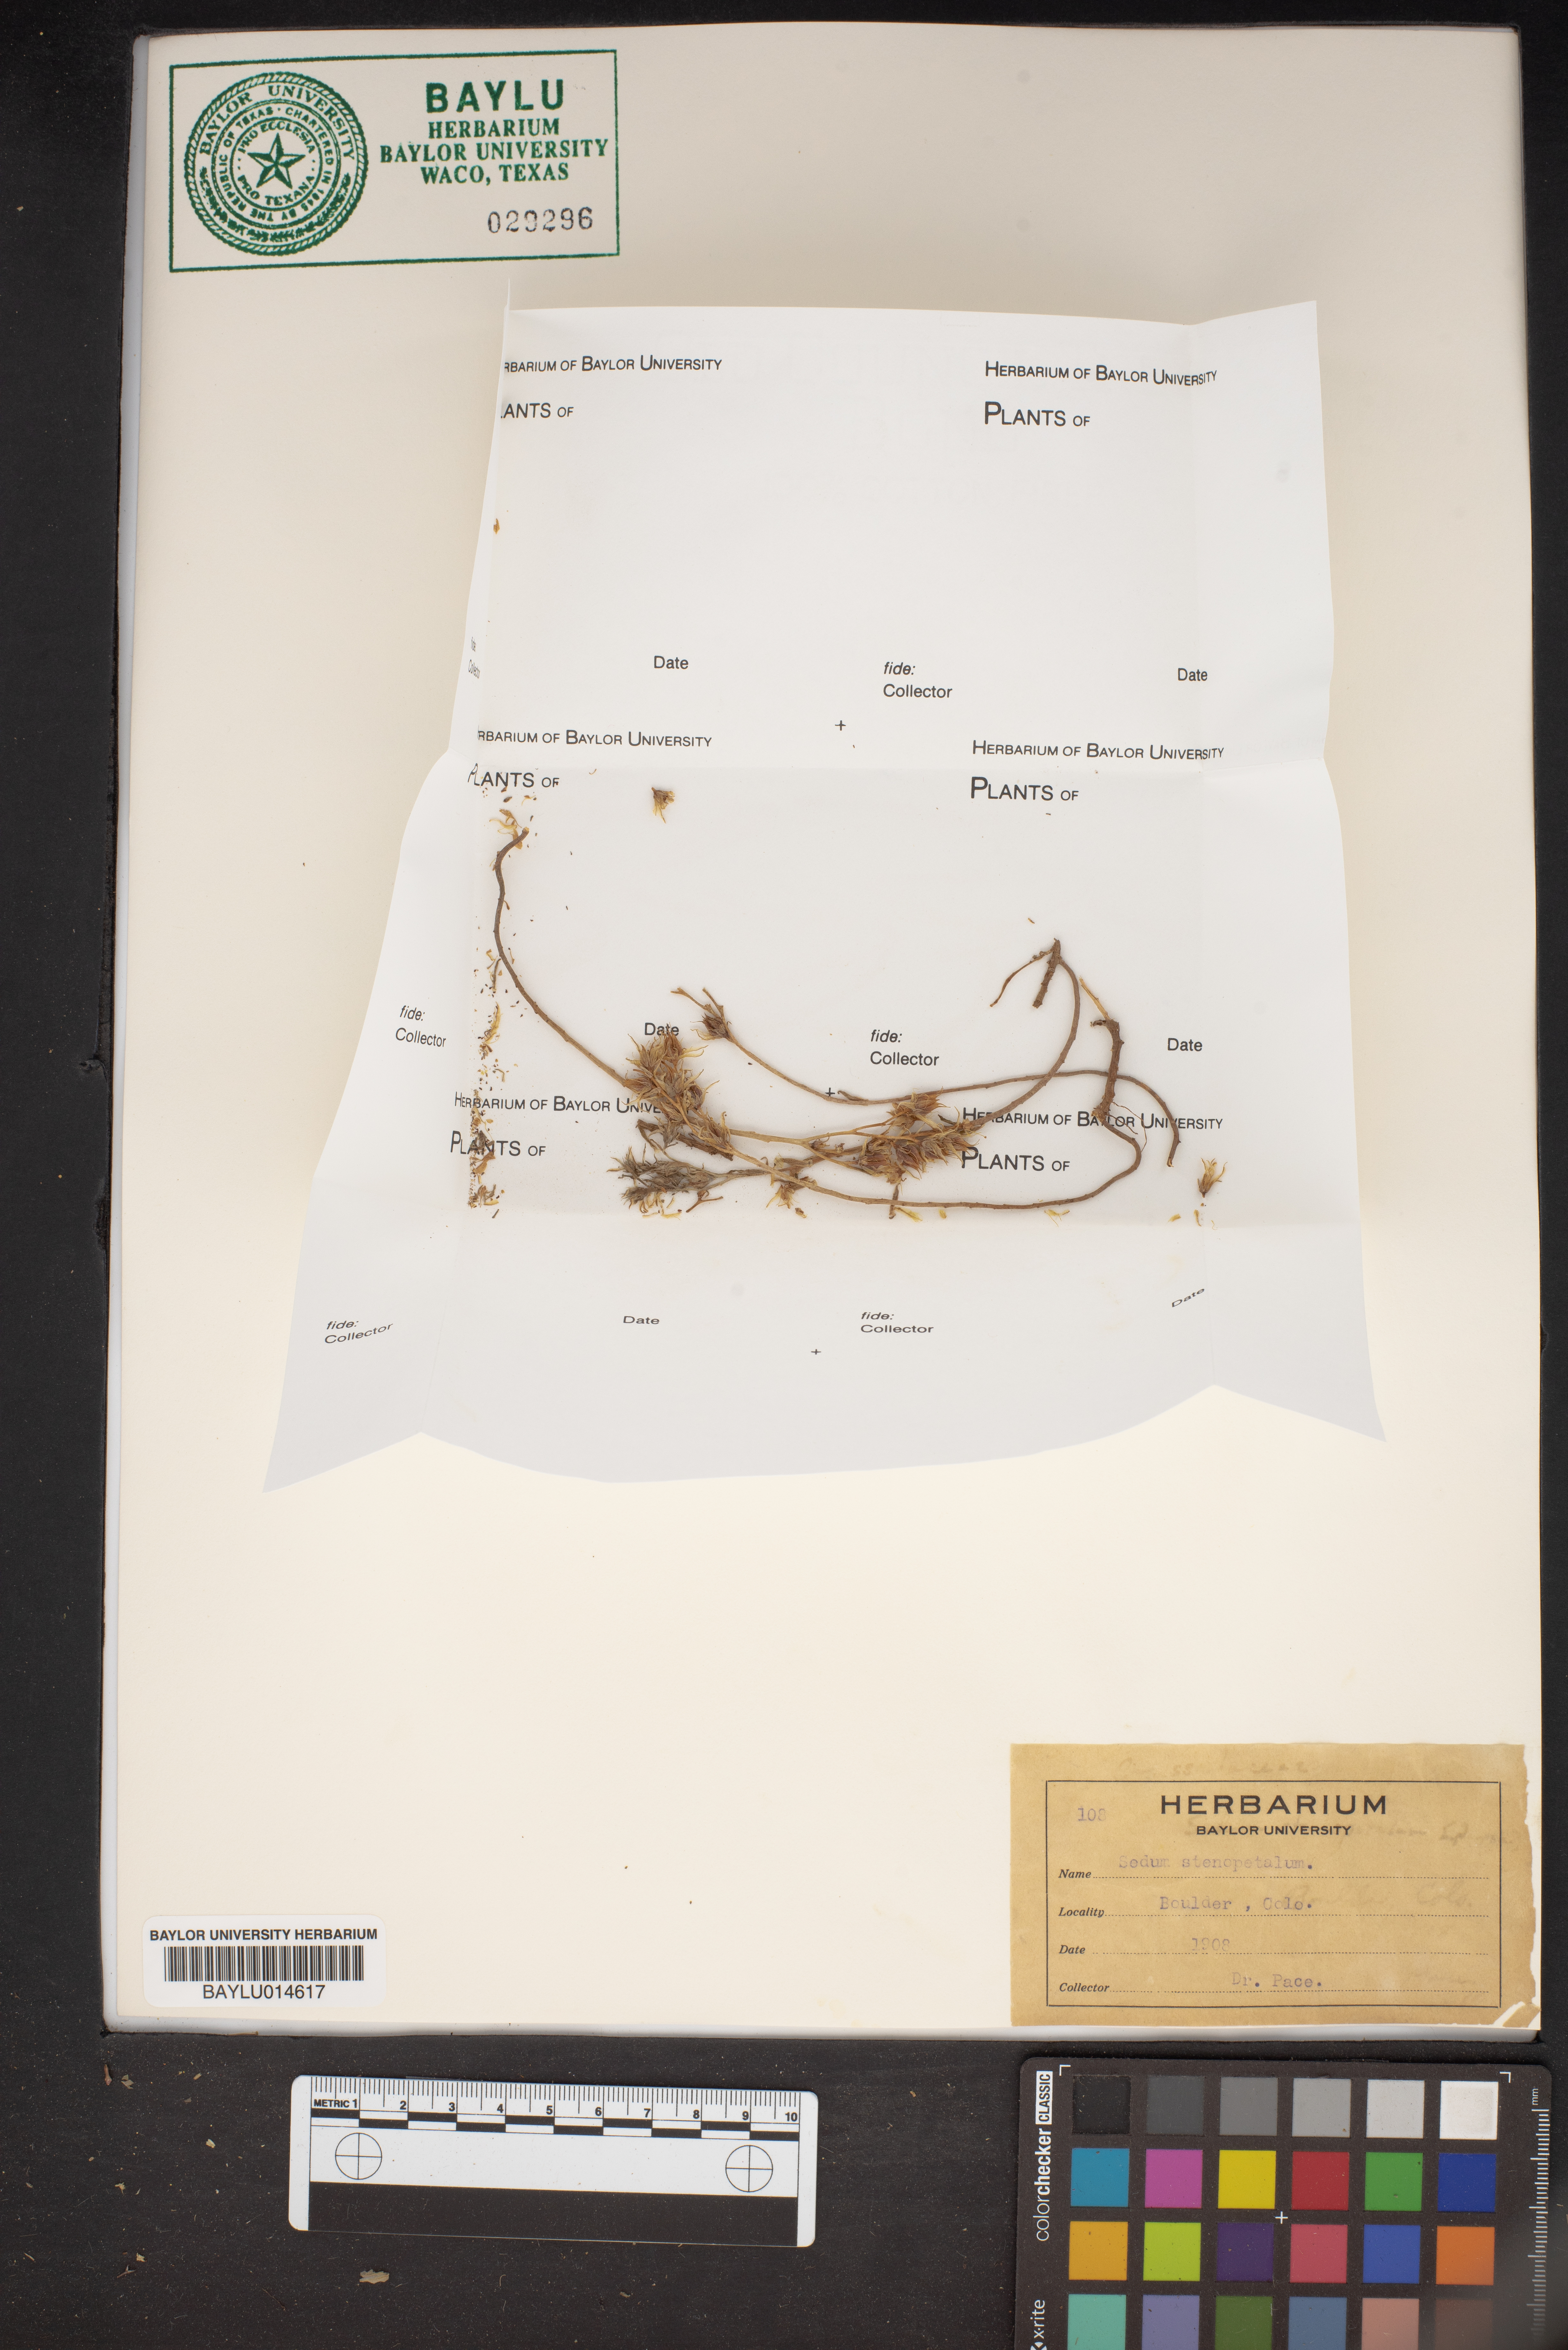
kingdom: Plantae
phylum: Tracheophyta
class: Magnoliopsida
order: Saxifragales
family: Crassulaceae
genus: Sedum
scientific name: Sedum stenopetalum
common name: Narrow-petaled stonecrop
